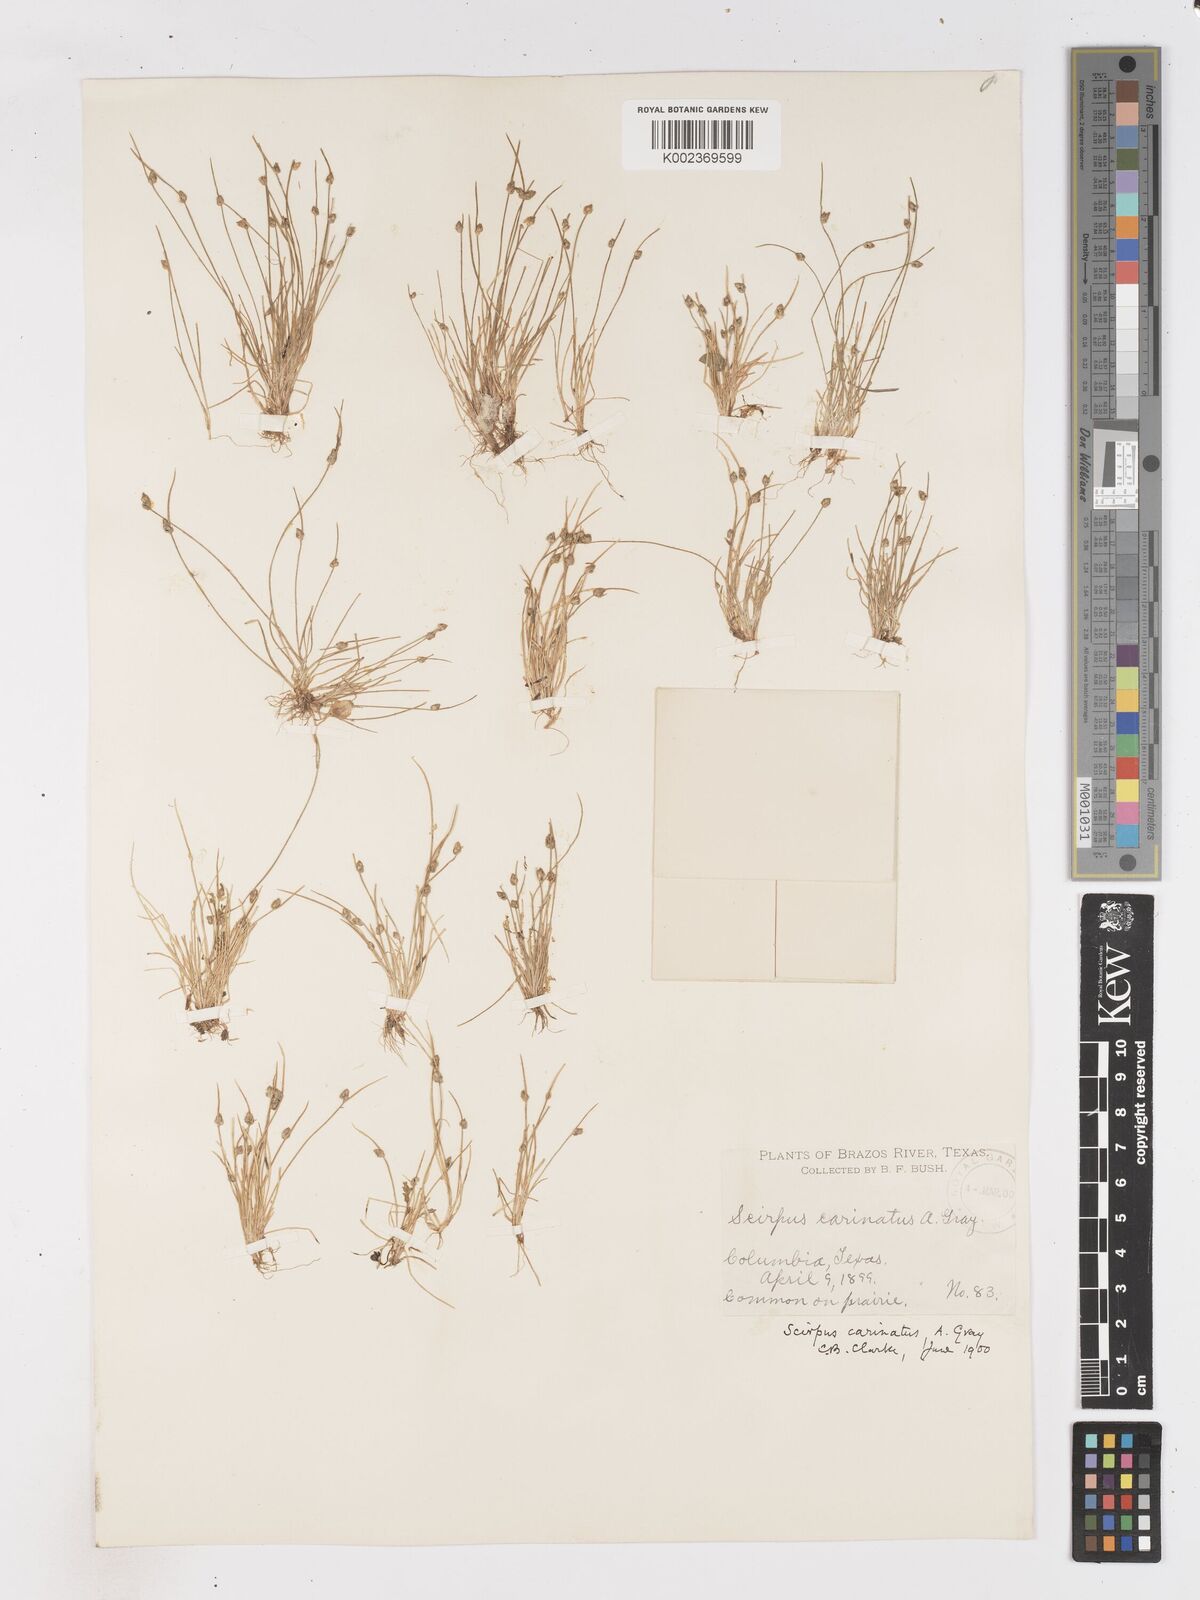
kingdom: Plantae
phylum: Tracheophyta
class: Liliopsida
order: Poales
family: Cyperaceae
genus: Isolepis
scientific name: Isolepis carinata
